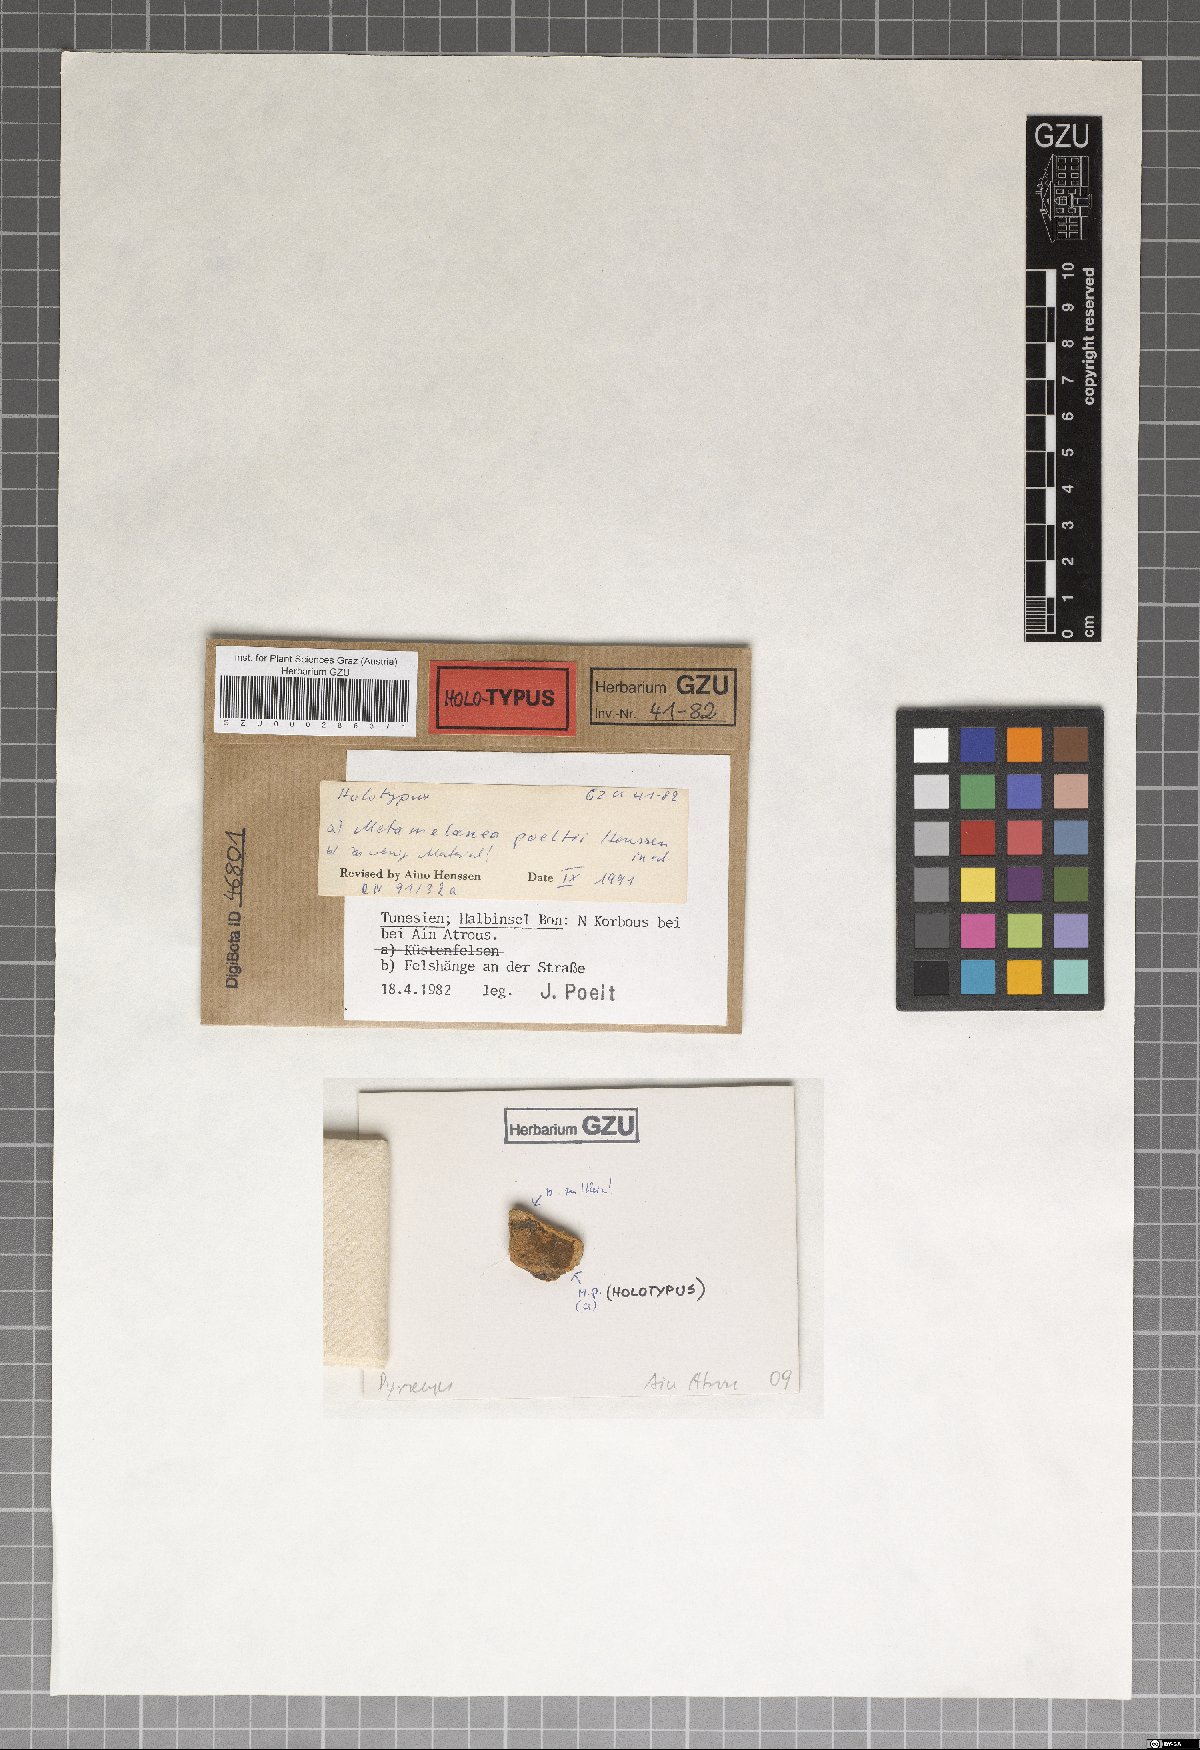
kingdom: Fungi
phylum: Ascomycota
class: Lichinomycetes
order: Lichinales
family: Lichinaceae
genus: Metamelanea
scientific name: Metamelanea
